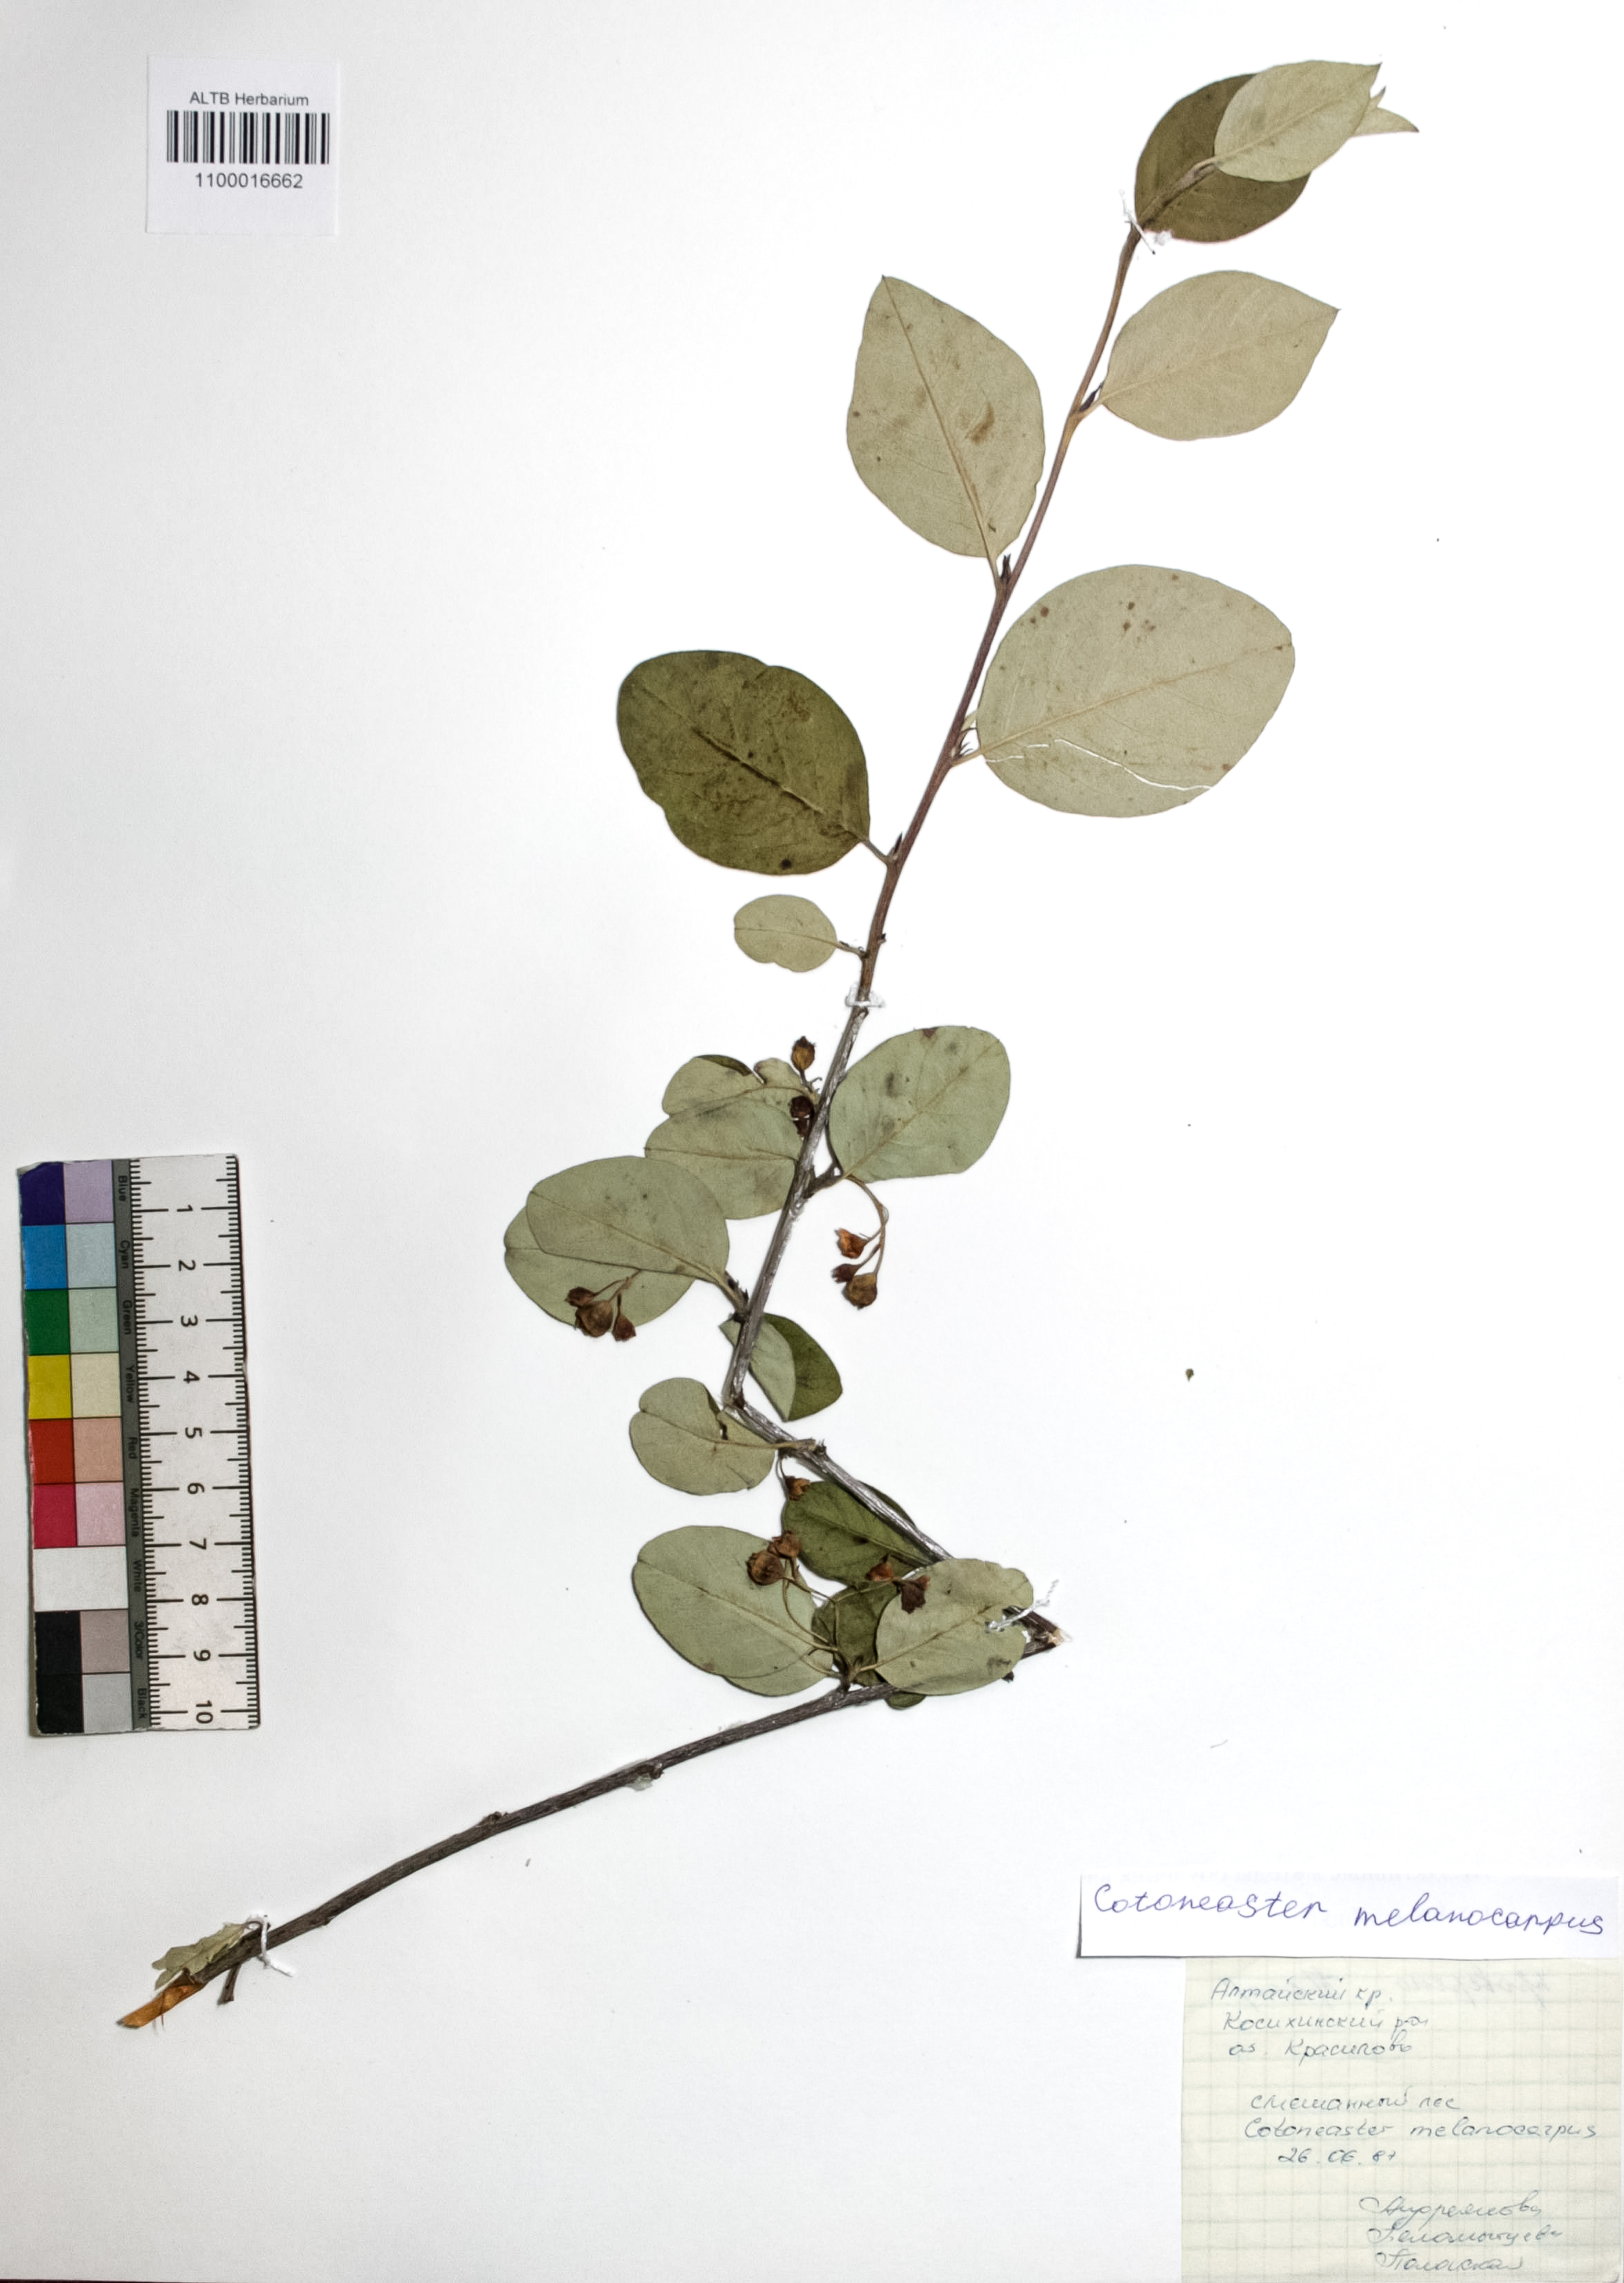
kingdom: Plantae
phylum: Tracheophyta
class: Magnoliopsida
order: Rosales
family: Rosaceae
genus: Cotoneaster
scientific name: Cotoneaster niger
